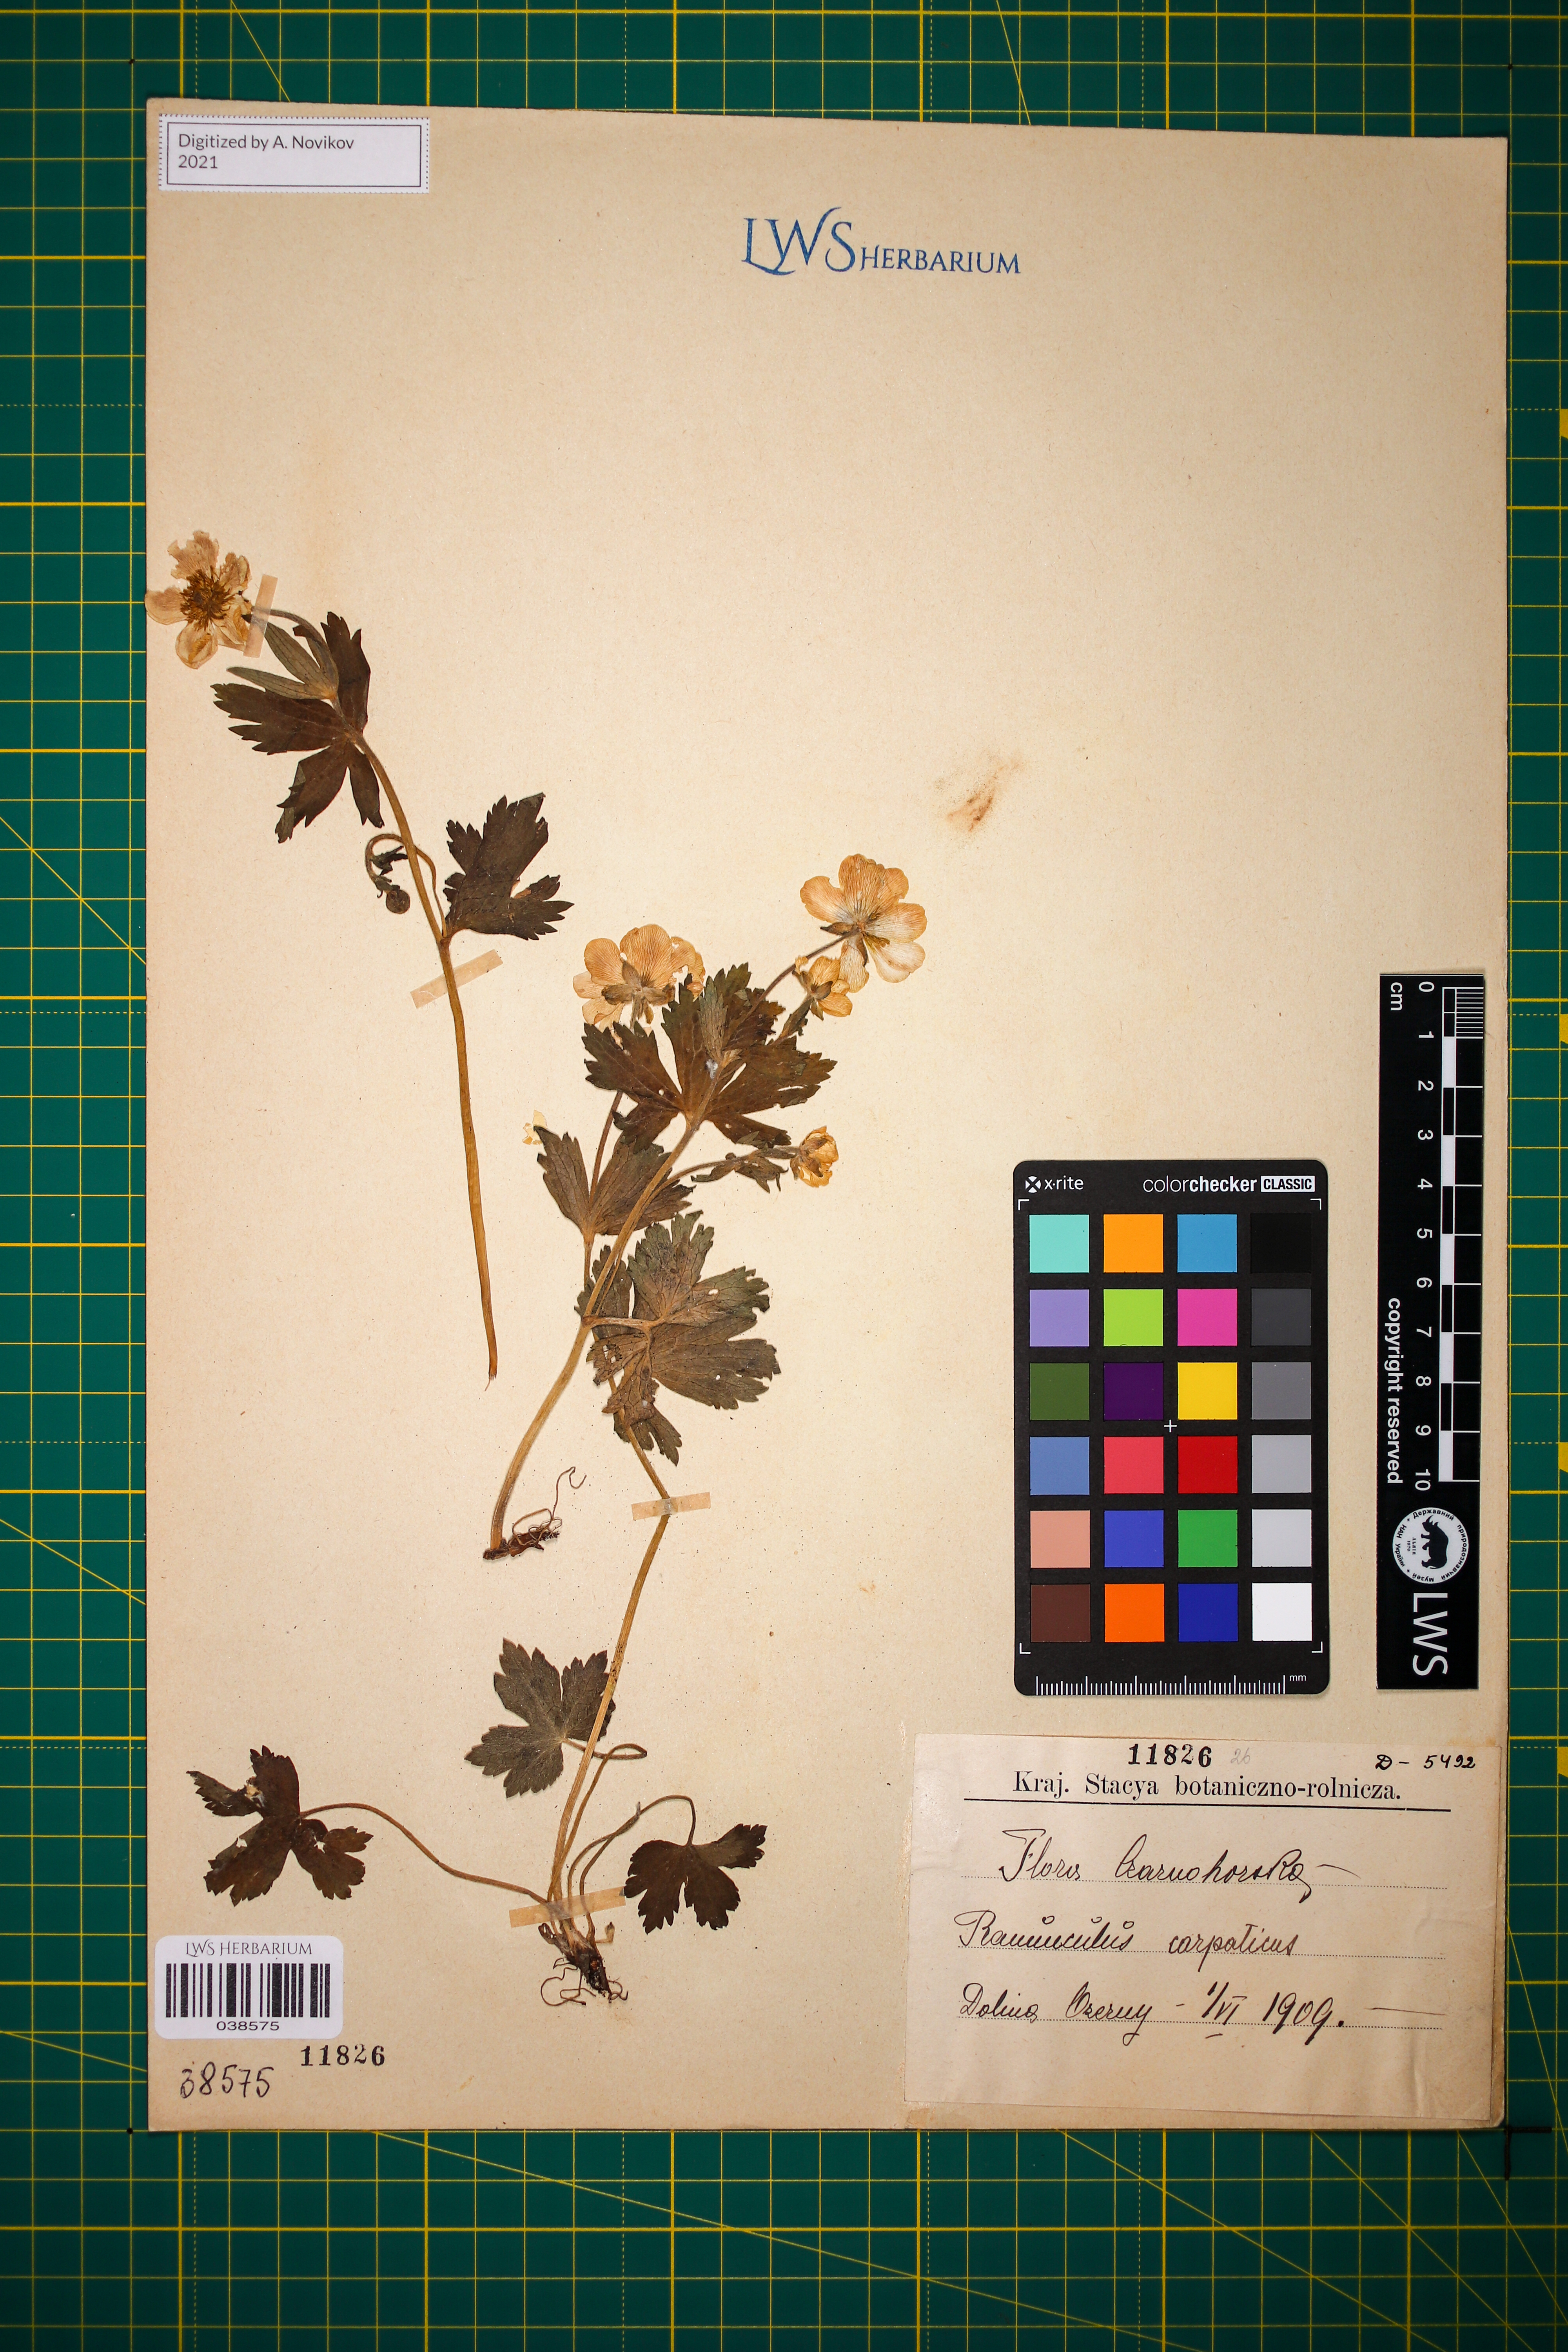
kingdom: Plantae
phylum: Tracheophyta
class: Magnoliopsida
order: Ranunculales
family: Ranunculaceae
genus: Ranunculus
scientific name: Ranunculus carpaticus
